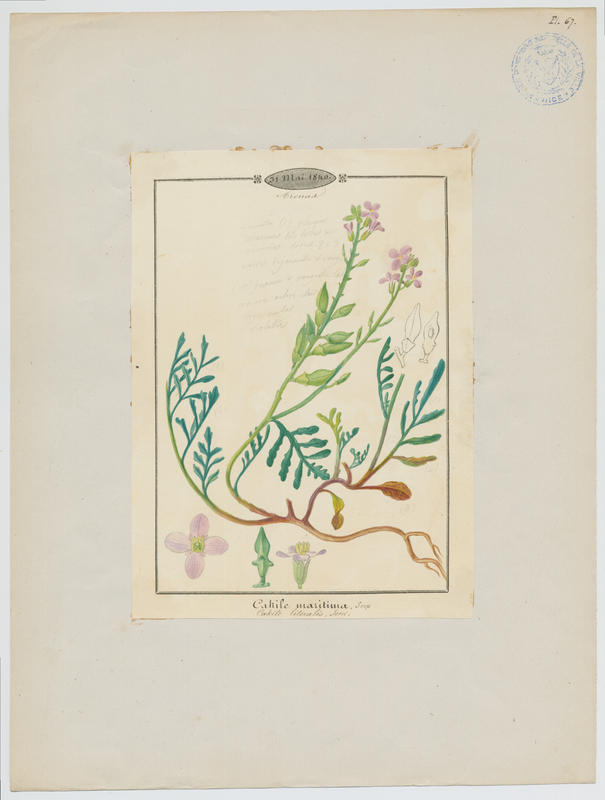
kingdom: Plantae
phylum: Tracheophyta
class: Magnoliopsida
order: Brassicales
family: Brassicaceae
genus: Cakile
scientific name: Cakile maritima
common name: Sea rocket
